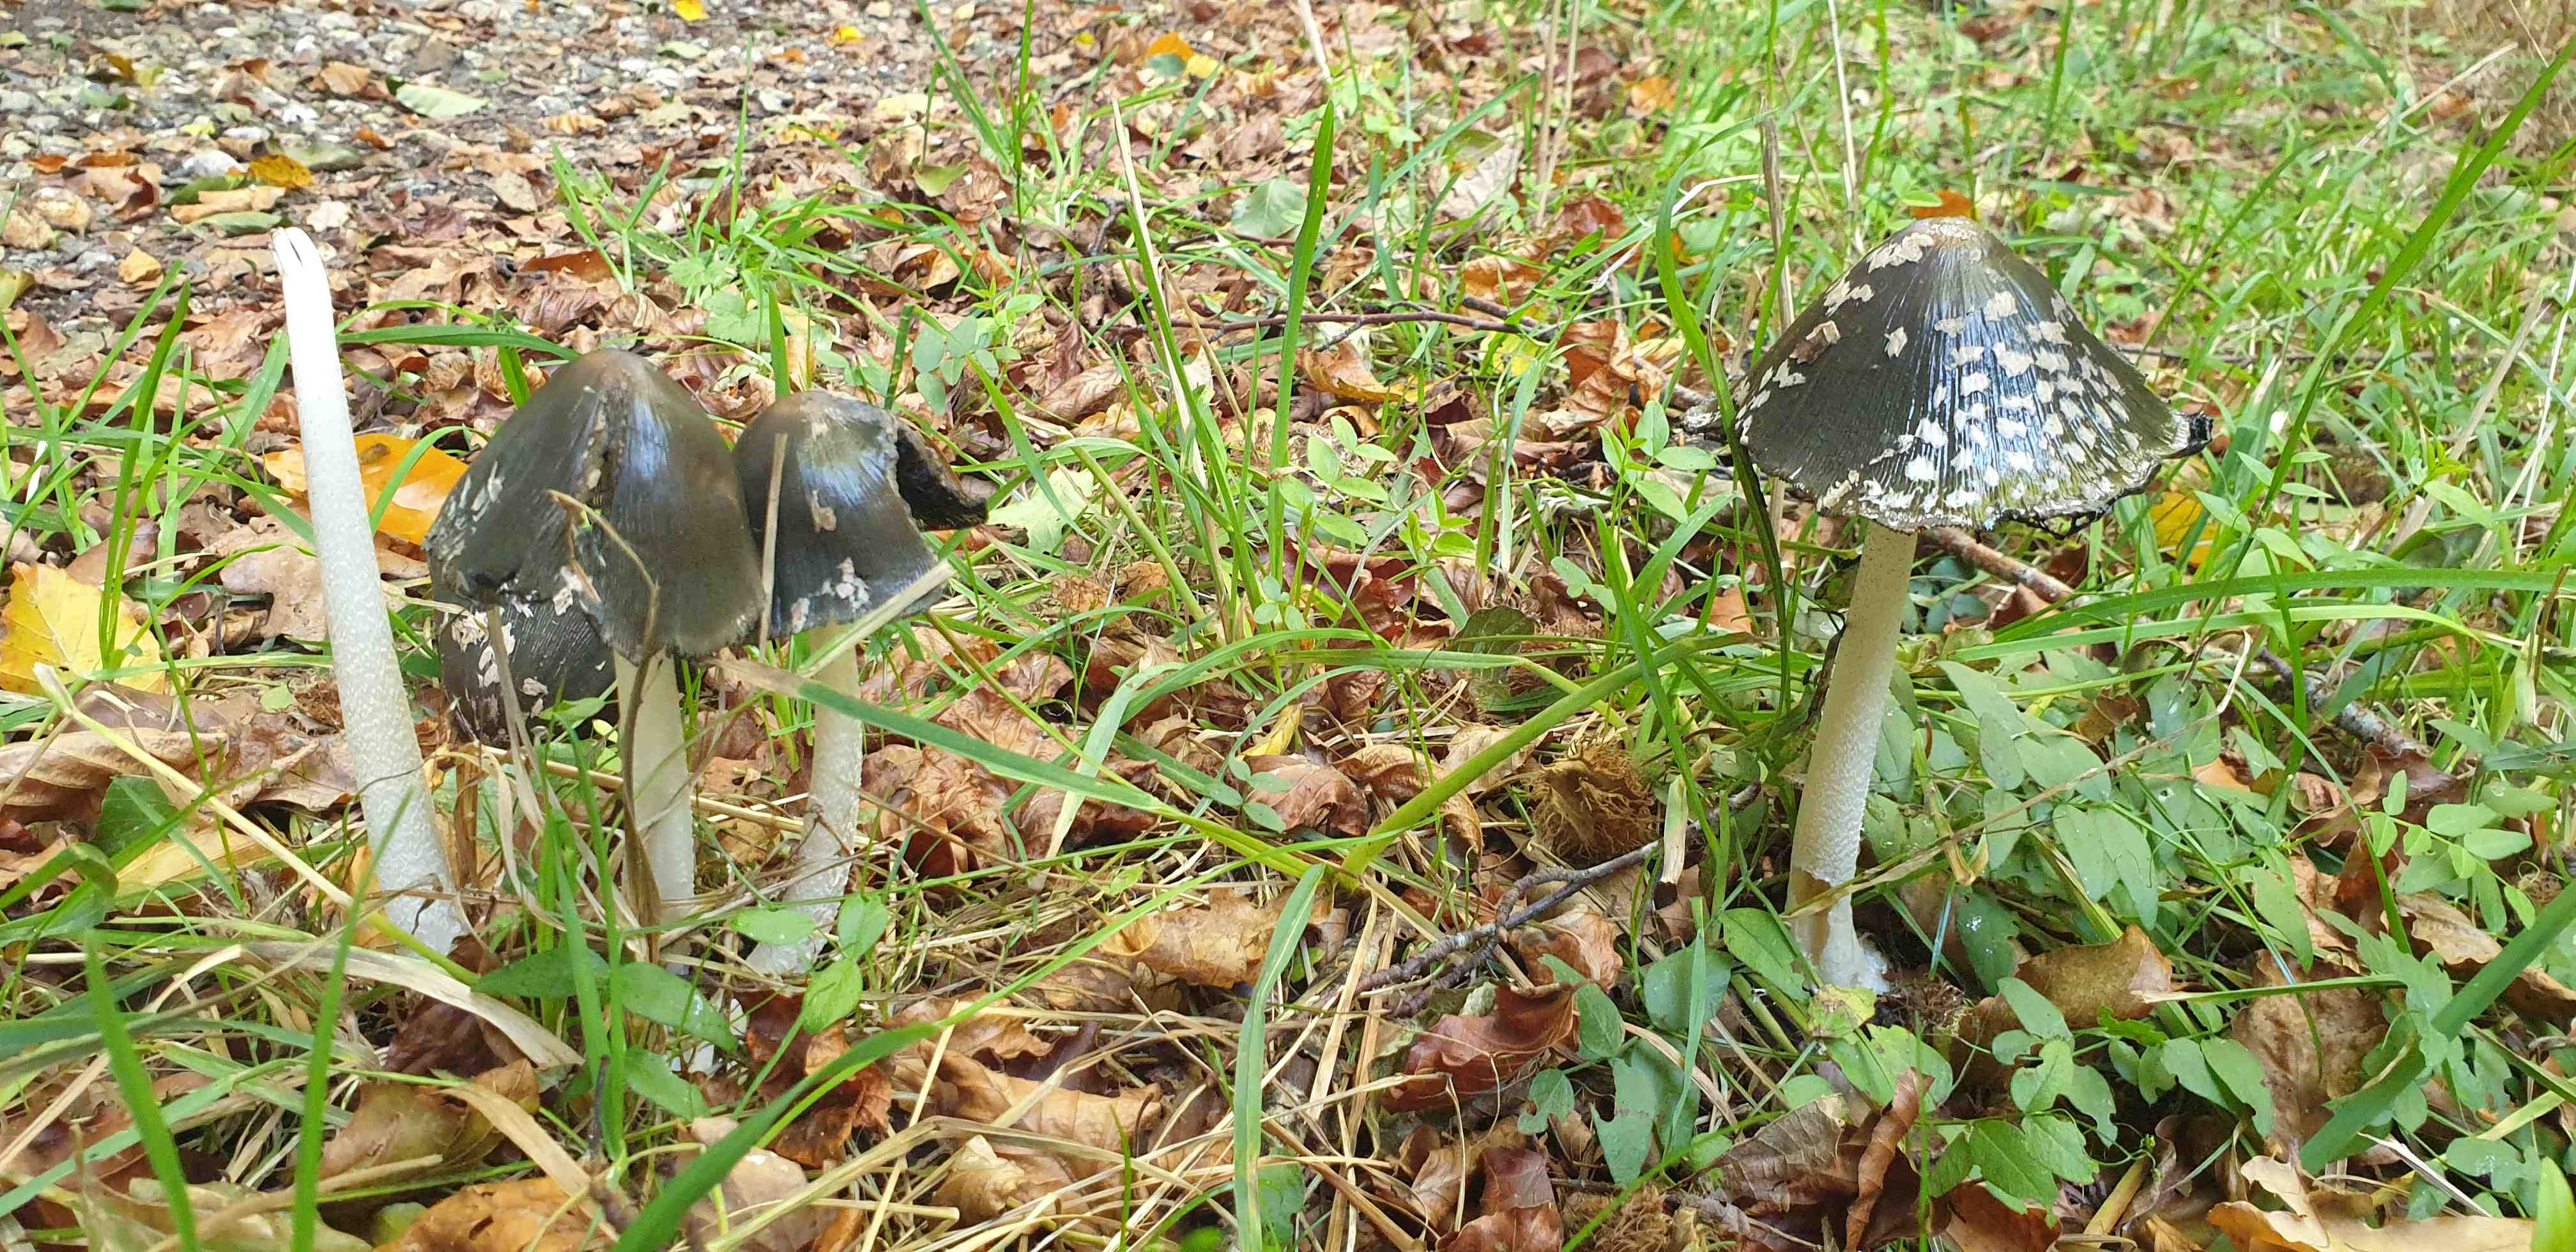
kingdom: Fungi
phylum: Basidiomycota
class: Agaricomycetes
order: Agaricales
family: Psathyrellaceae
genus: Coprinopsis
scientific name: Coprinopsis picacea
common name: skade-blækhat
